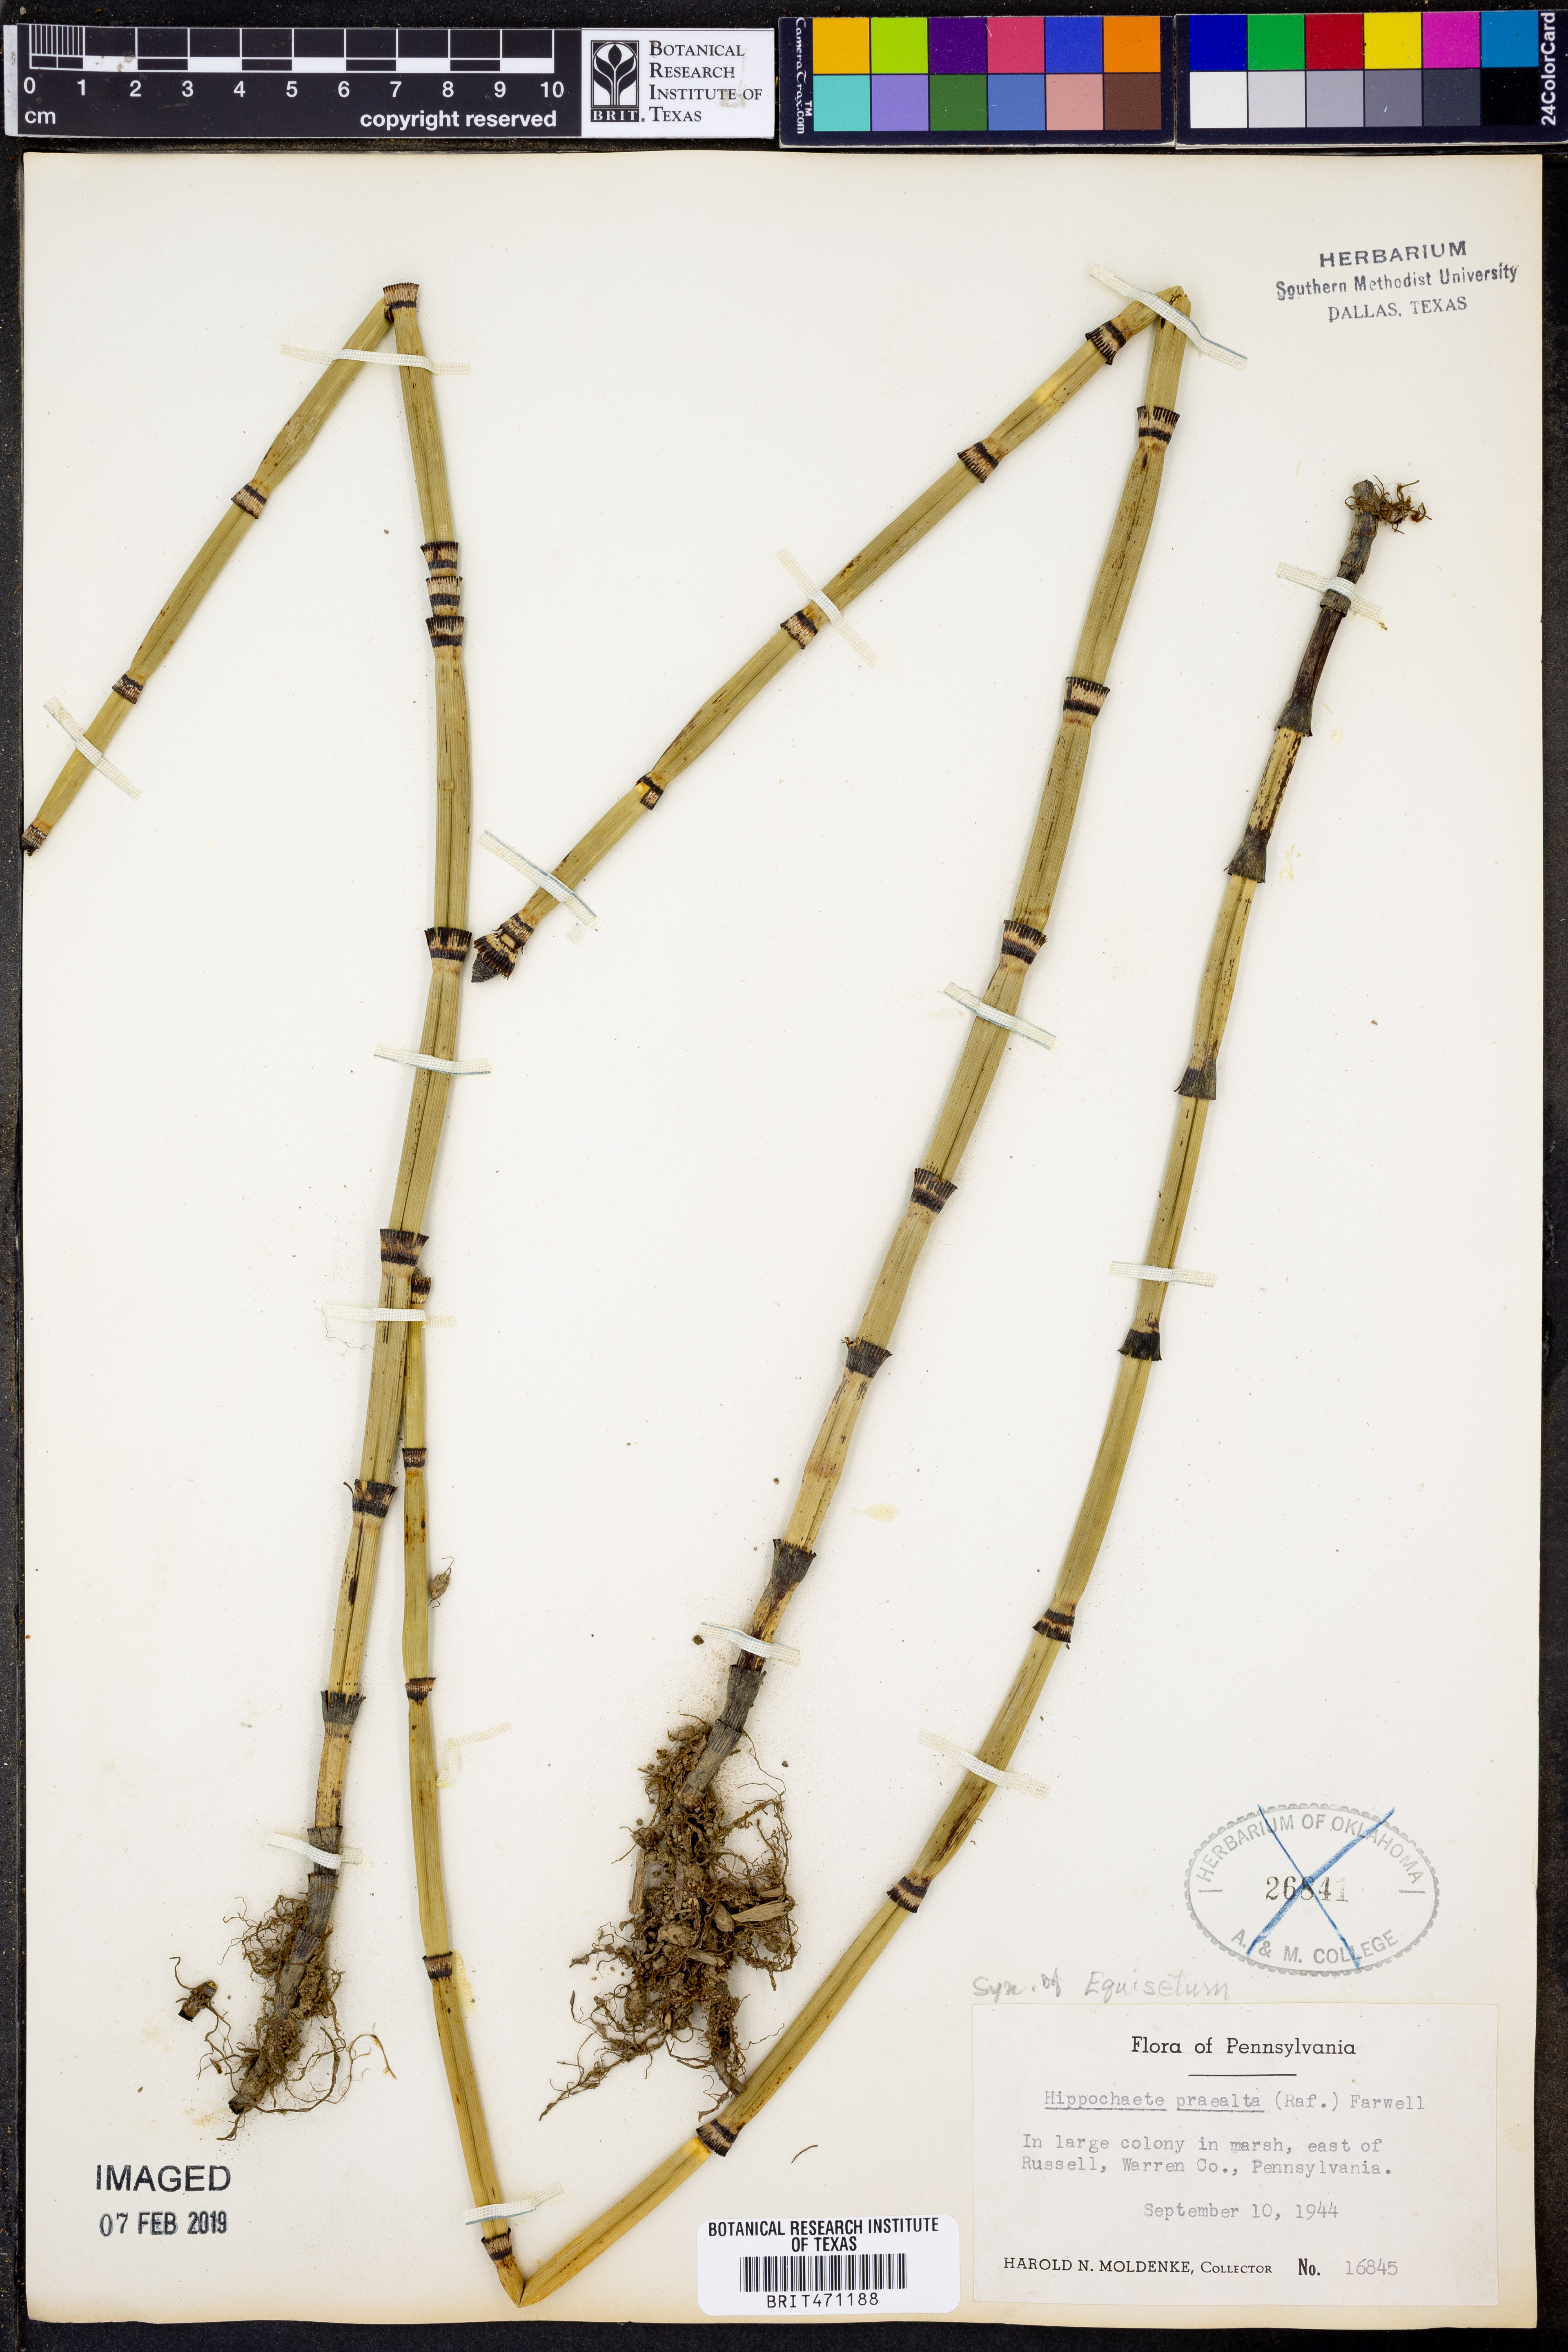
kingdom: Plantae
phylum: Tracheophyta
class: Polypodiopsida
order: Equisetales
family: Equisetaceae
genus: Equisetum
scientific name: Equisetum praealtum
